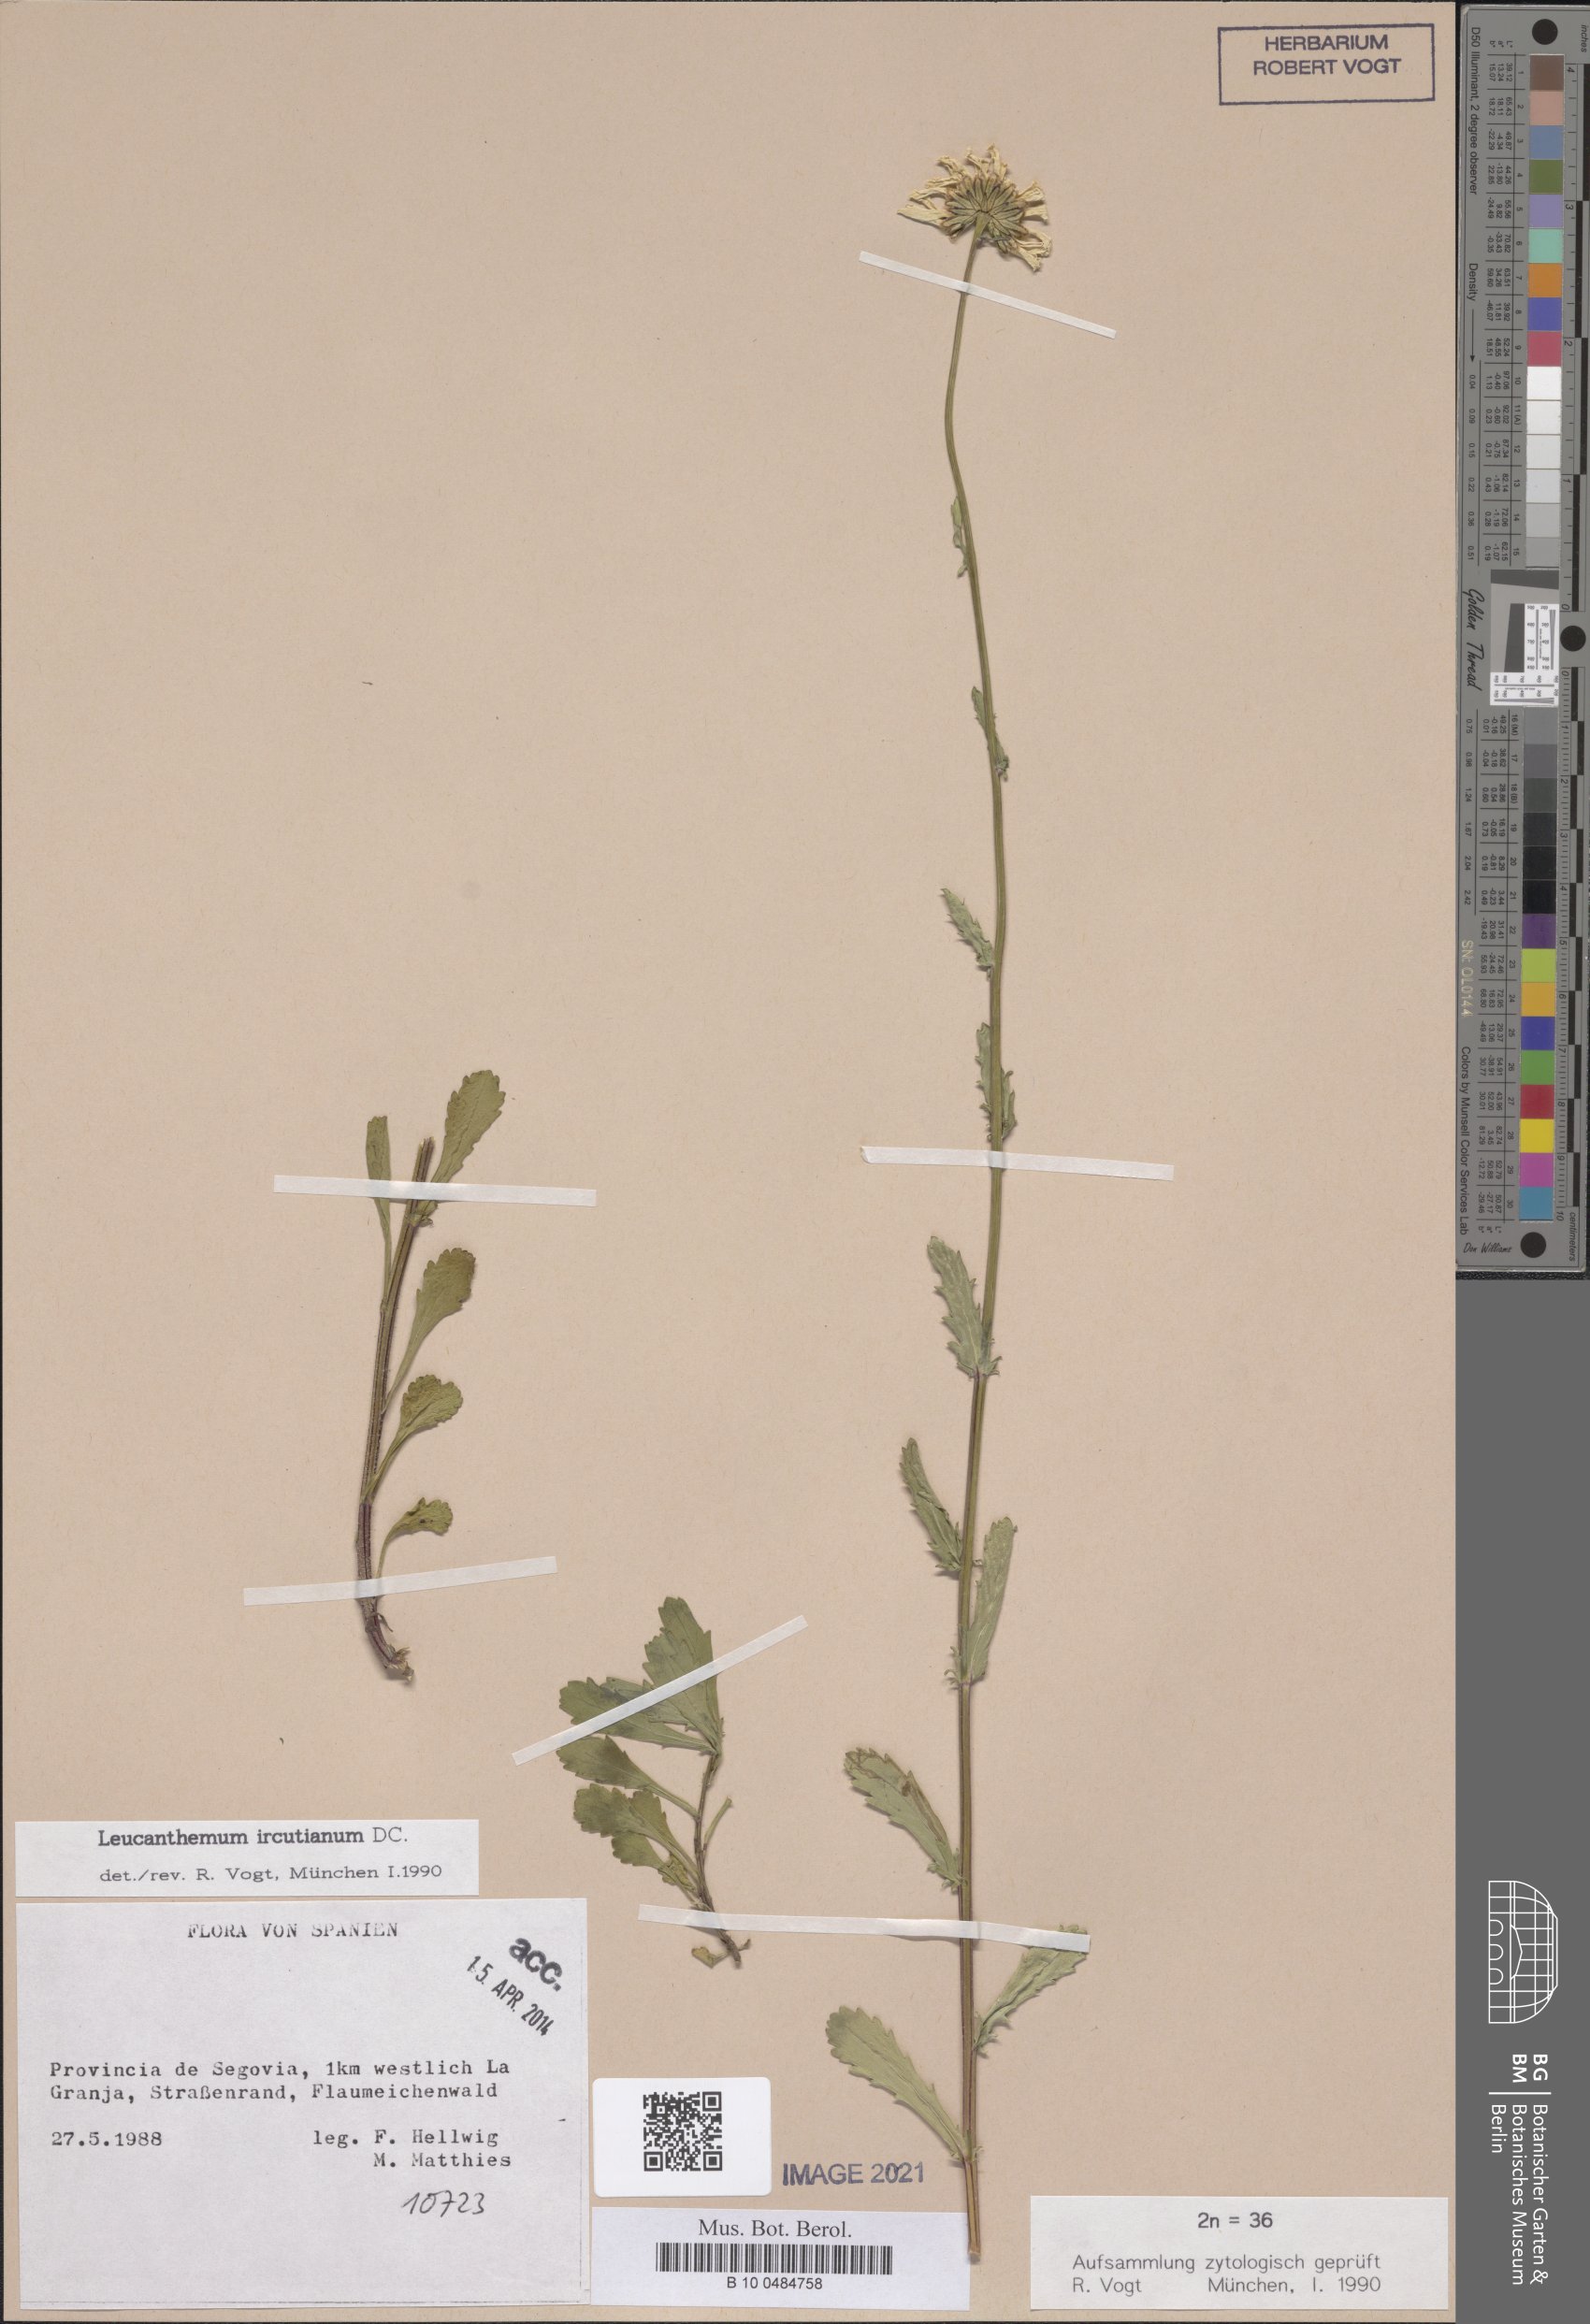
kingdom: Plantae
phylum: Tracheophyta
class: Magnoliopsida
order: Asterales
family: Asteraceae
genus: Leucanthemum
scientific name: Leucanthemum ircutianum
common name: Daisy
